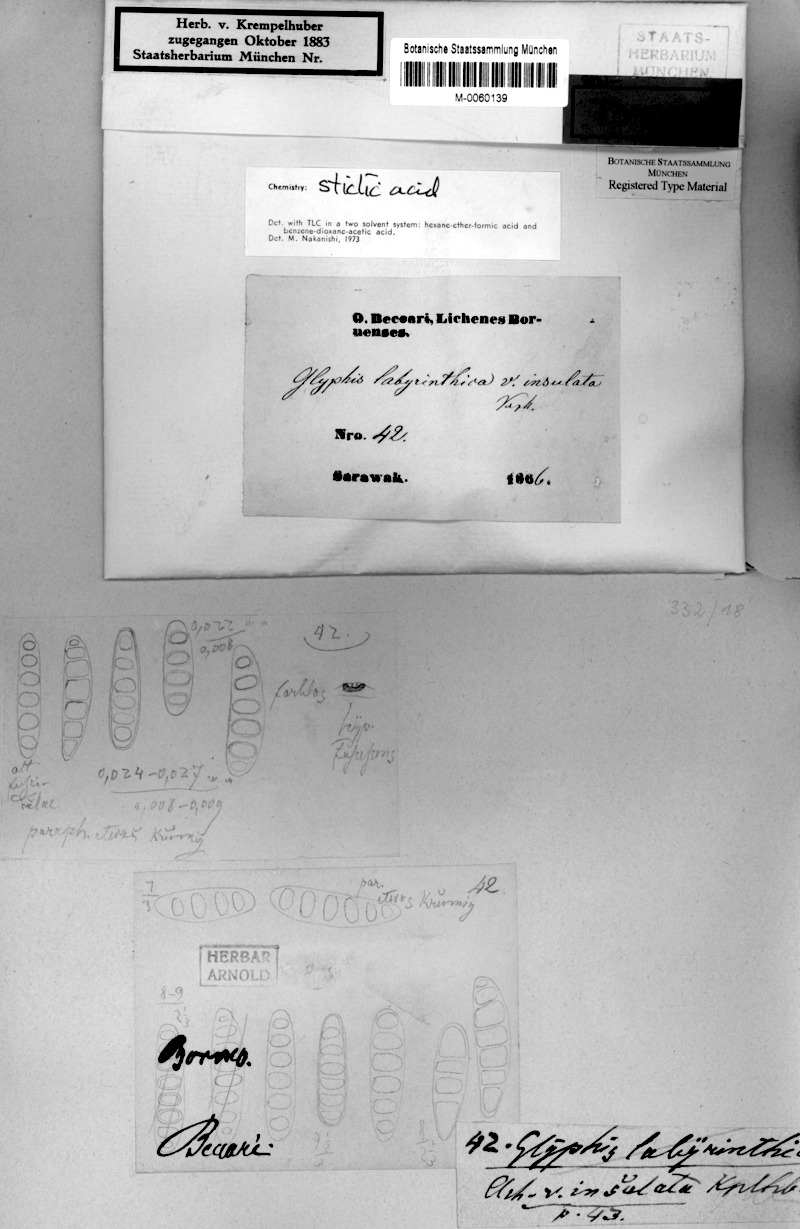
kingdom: Fungi
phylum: Ascomycota
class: Lecanoromycetes
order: Ostropales
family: Graphidaceae
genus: Sarcographa
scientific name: Sarcographa labyrinthica
